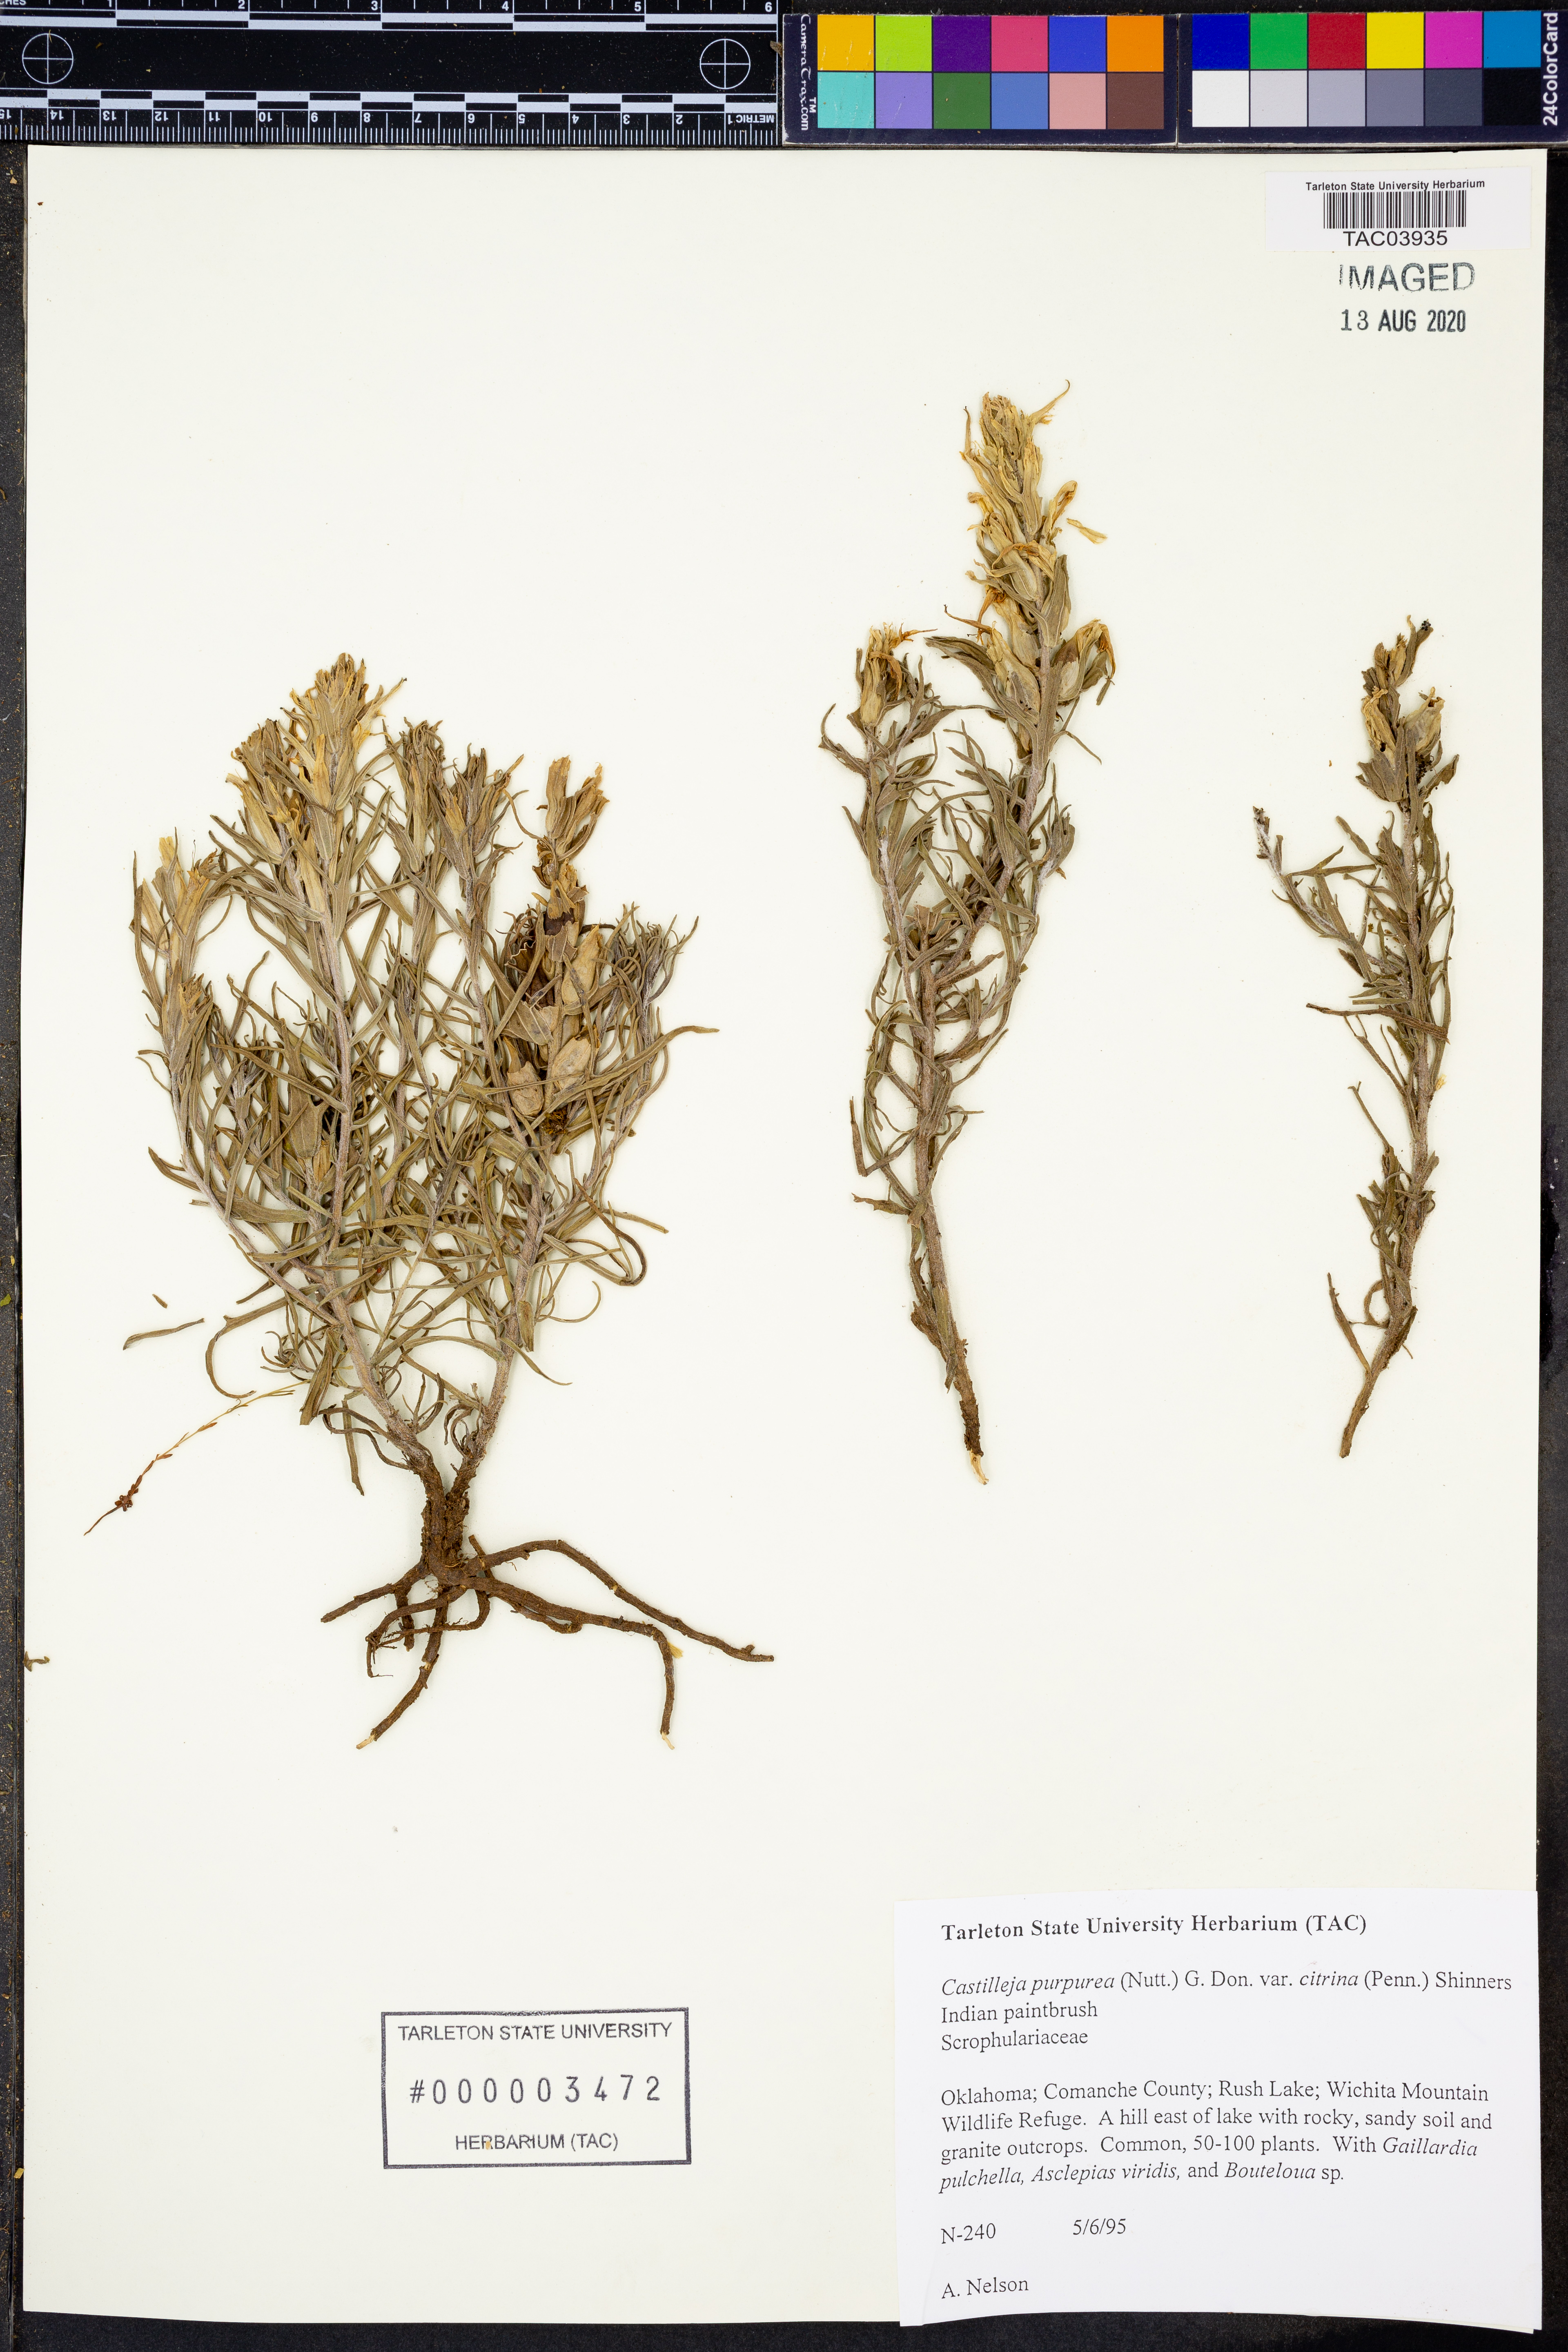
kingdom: Plantae
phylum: Tracheophyta
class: Magnoliopsida
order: Lamiales
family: Orobanchaceae
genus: Castilleja
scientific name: Castilleja citrina
